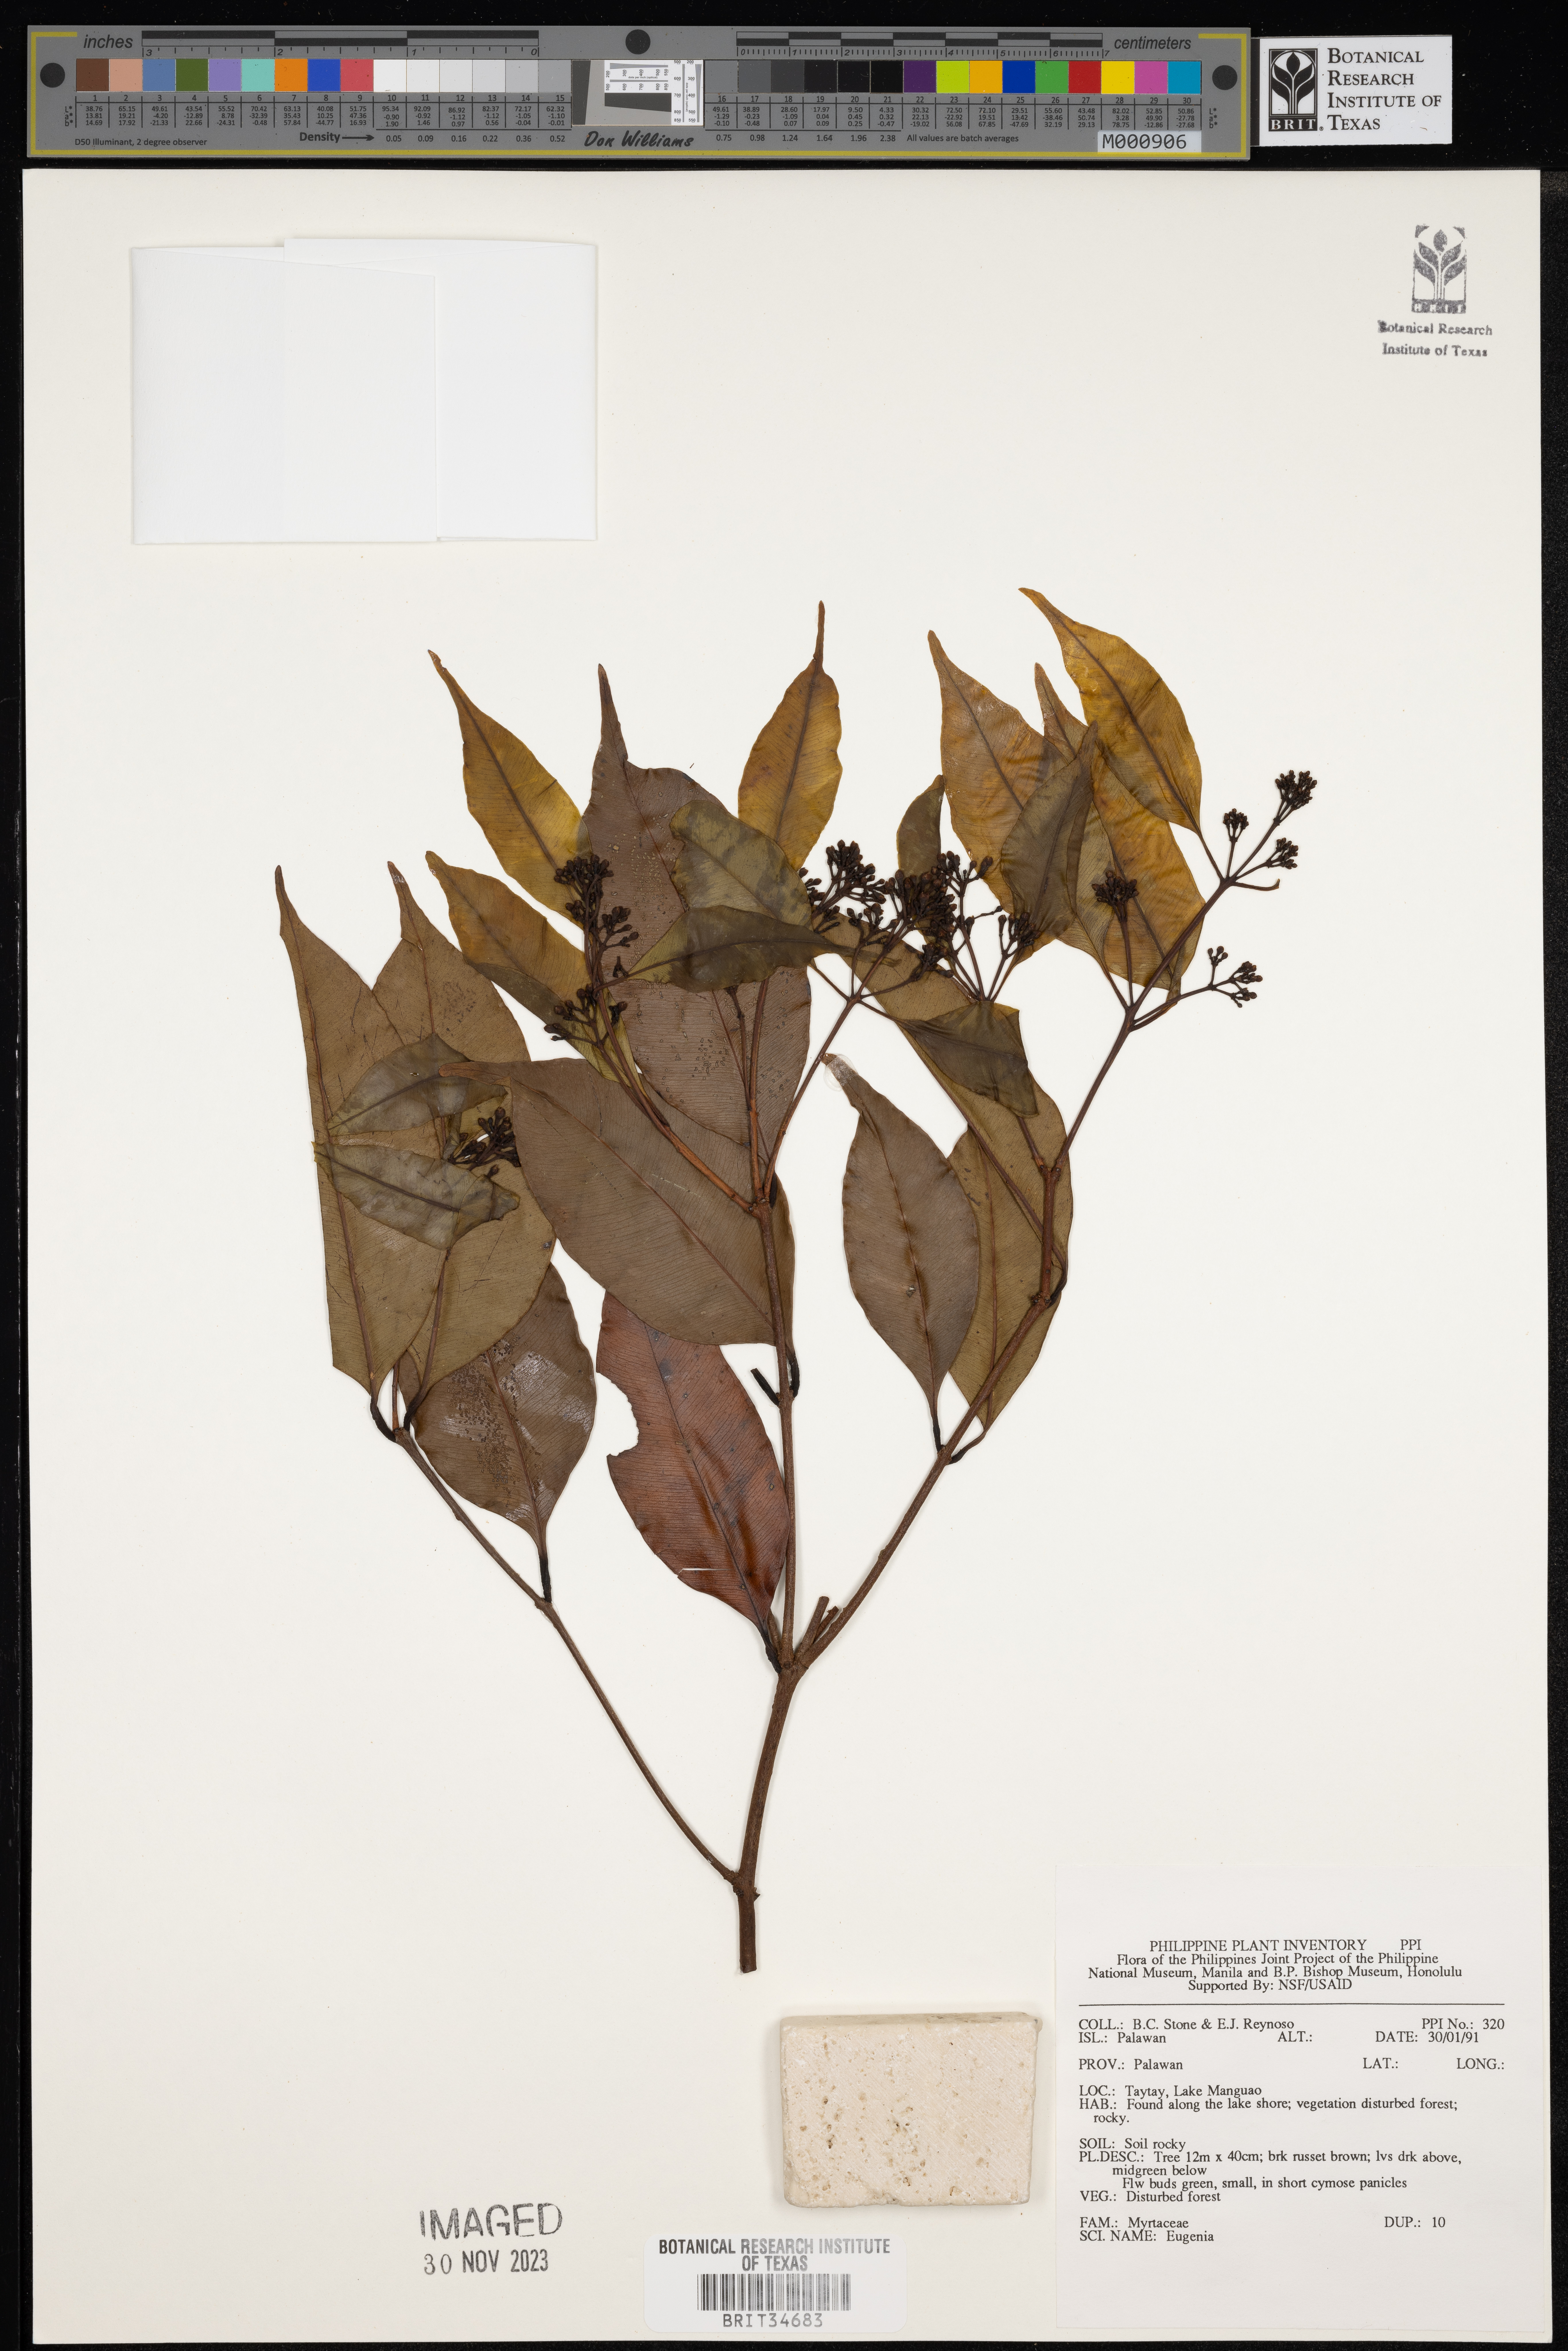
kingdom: Plantae
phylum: Tracheophyta
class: Magnoliopsida
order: Myrtales
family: Myrtaceae
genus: Eugenia
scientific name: Eugenia
